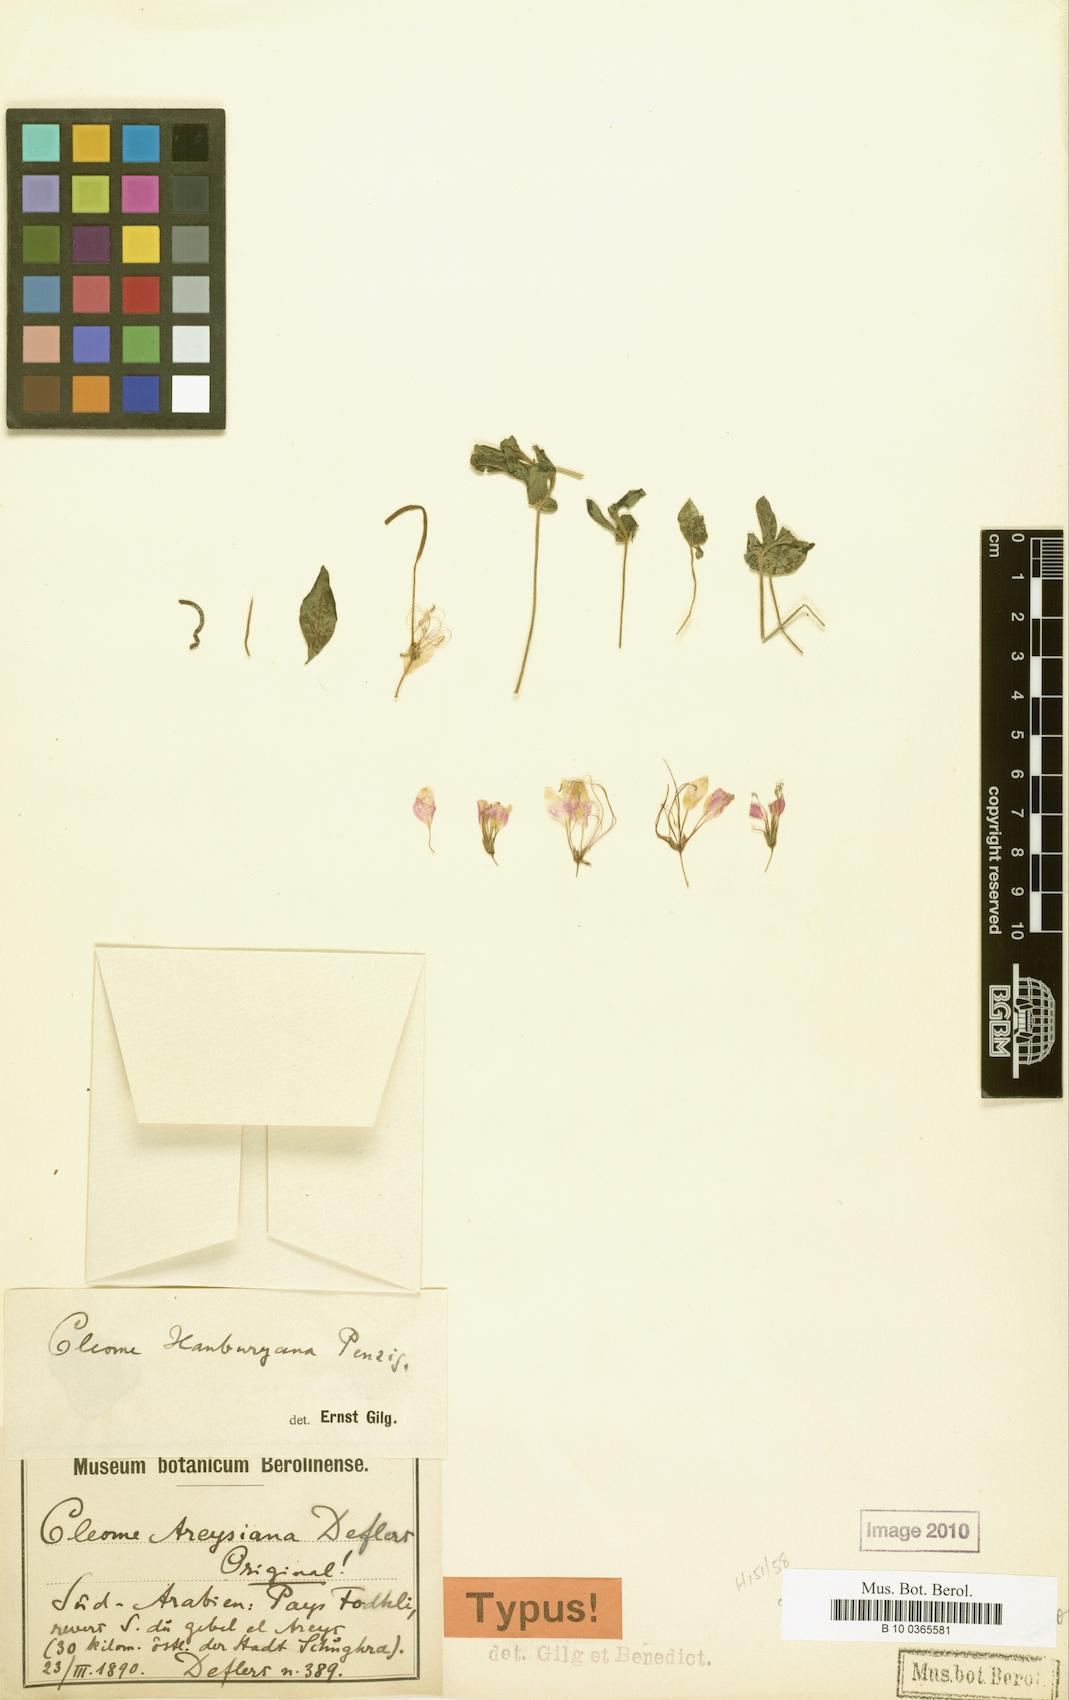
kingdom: Plantae
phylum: Tracheophyta
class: Magnoliopsida
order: Brassicales
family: Cleomaceae
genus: Sieruela
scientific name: Sieruela hanburyana
